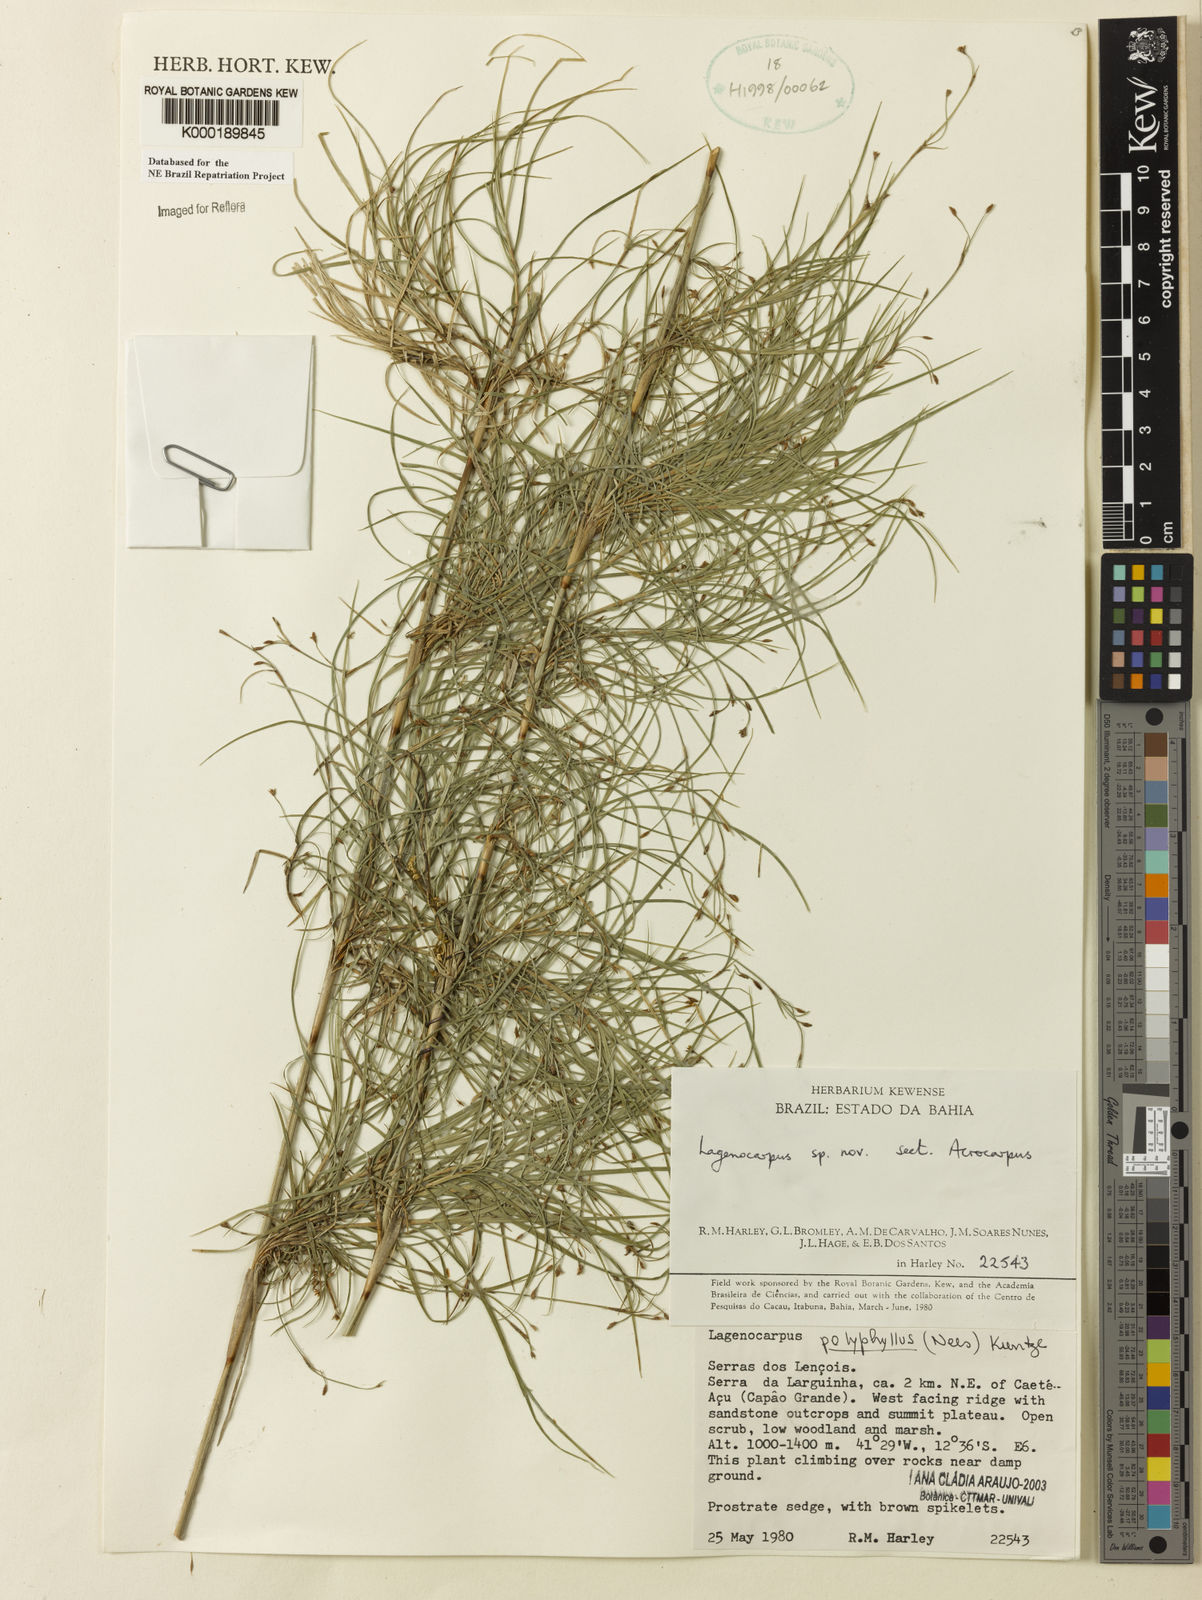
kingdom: Plantae
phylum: Tracheophyta
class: Liliopsida
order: Poales
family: Cyperaceae
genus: Cryptangium
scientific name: Cryptangium verticillatum
